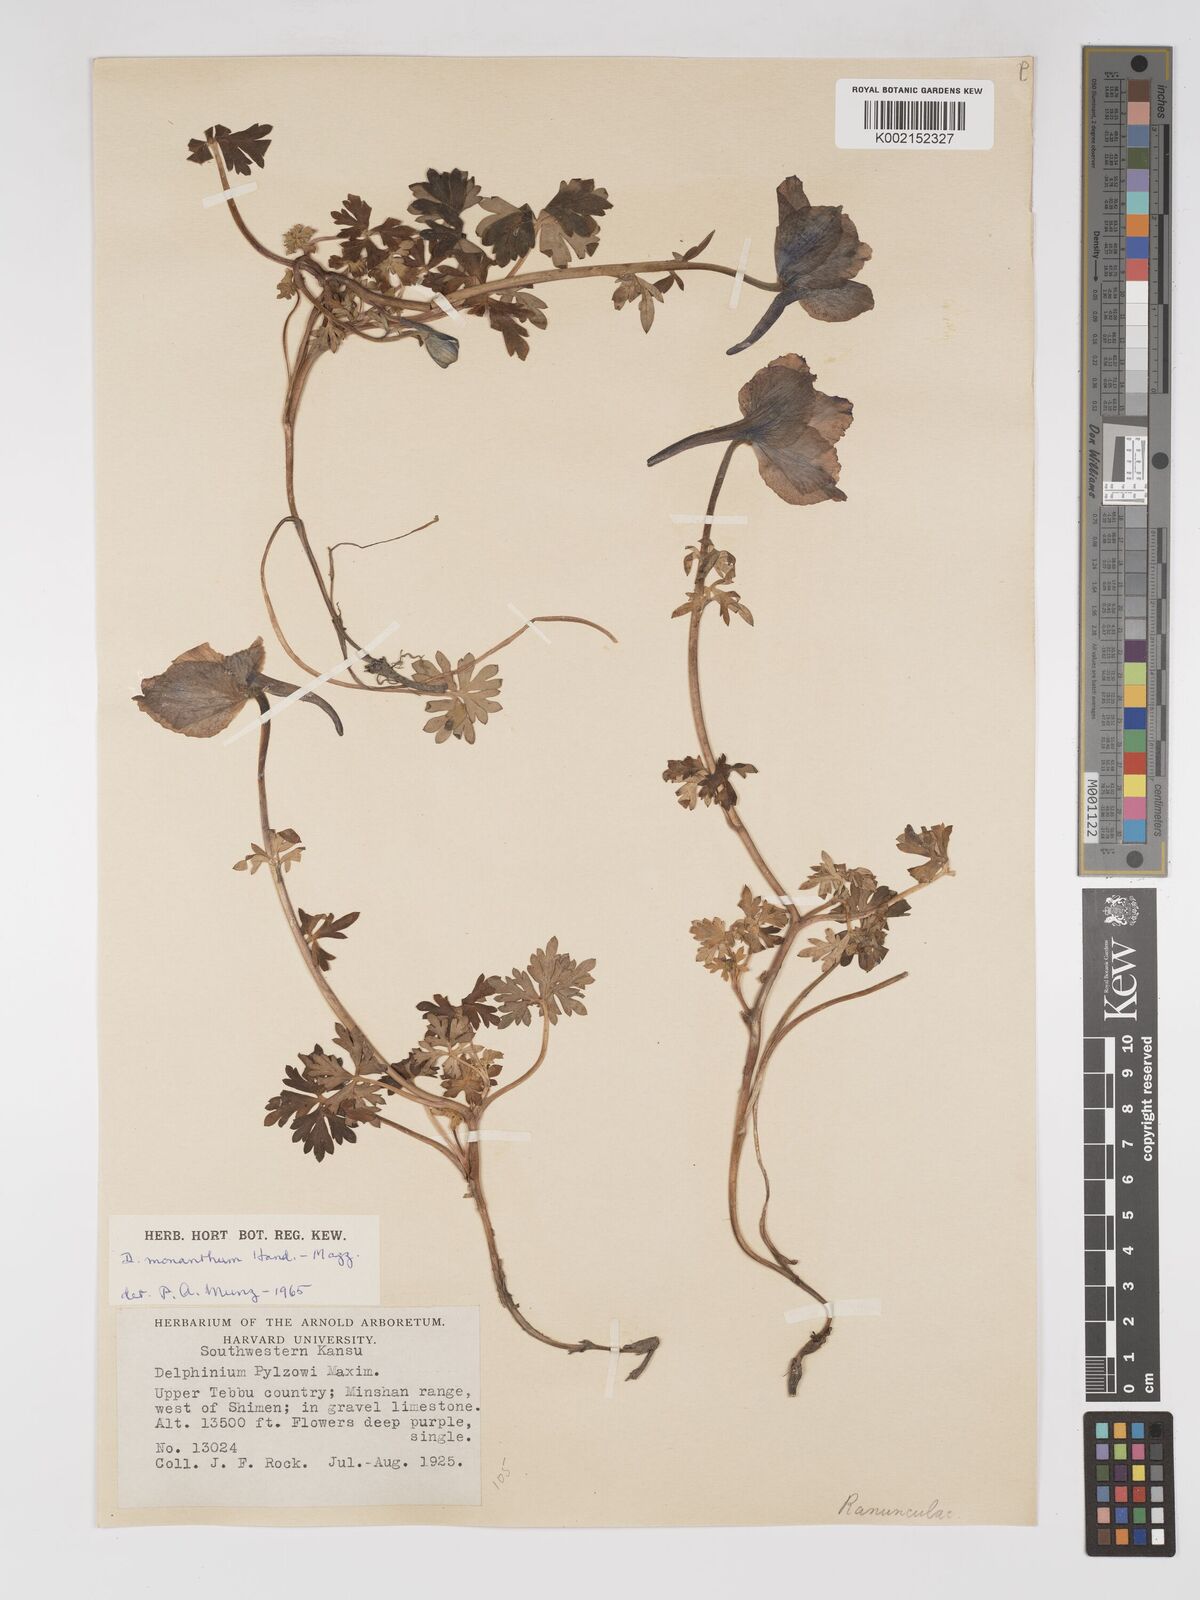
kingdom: Plantae
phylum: Tracheophyta
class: Magnoliopsida
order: Ranunculales
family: Ranunculaceae
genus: Delphinium
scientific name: Delphinium monanthum
